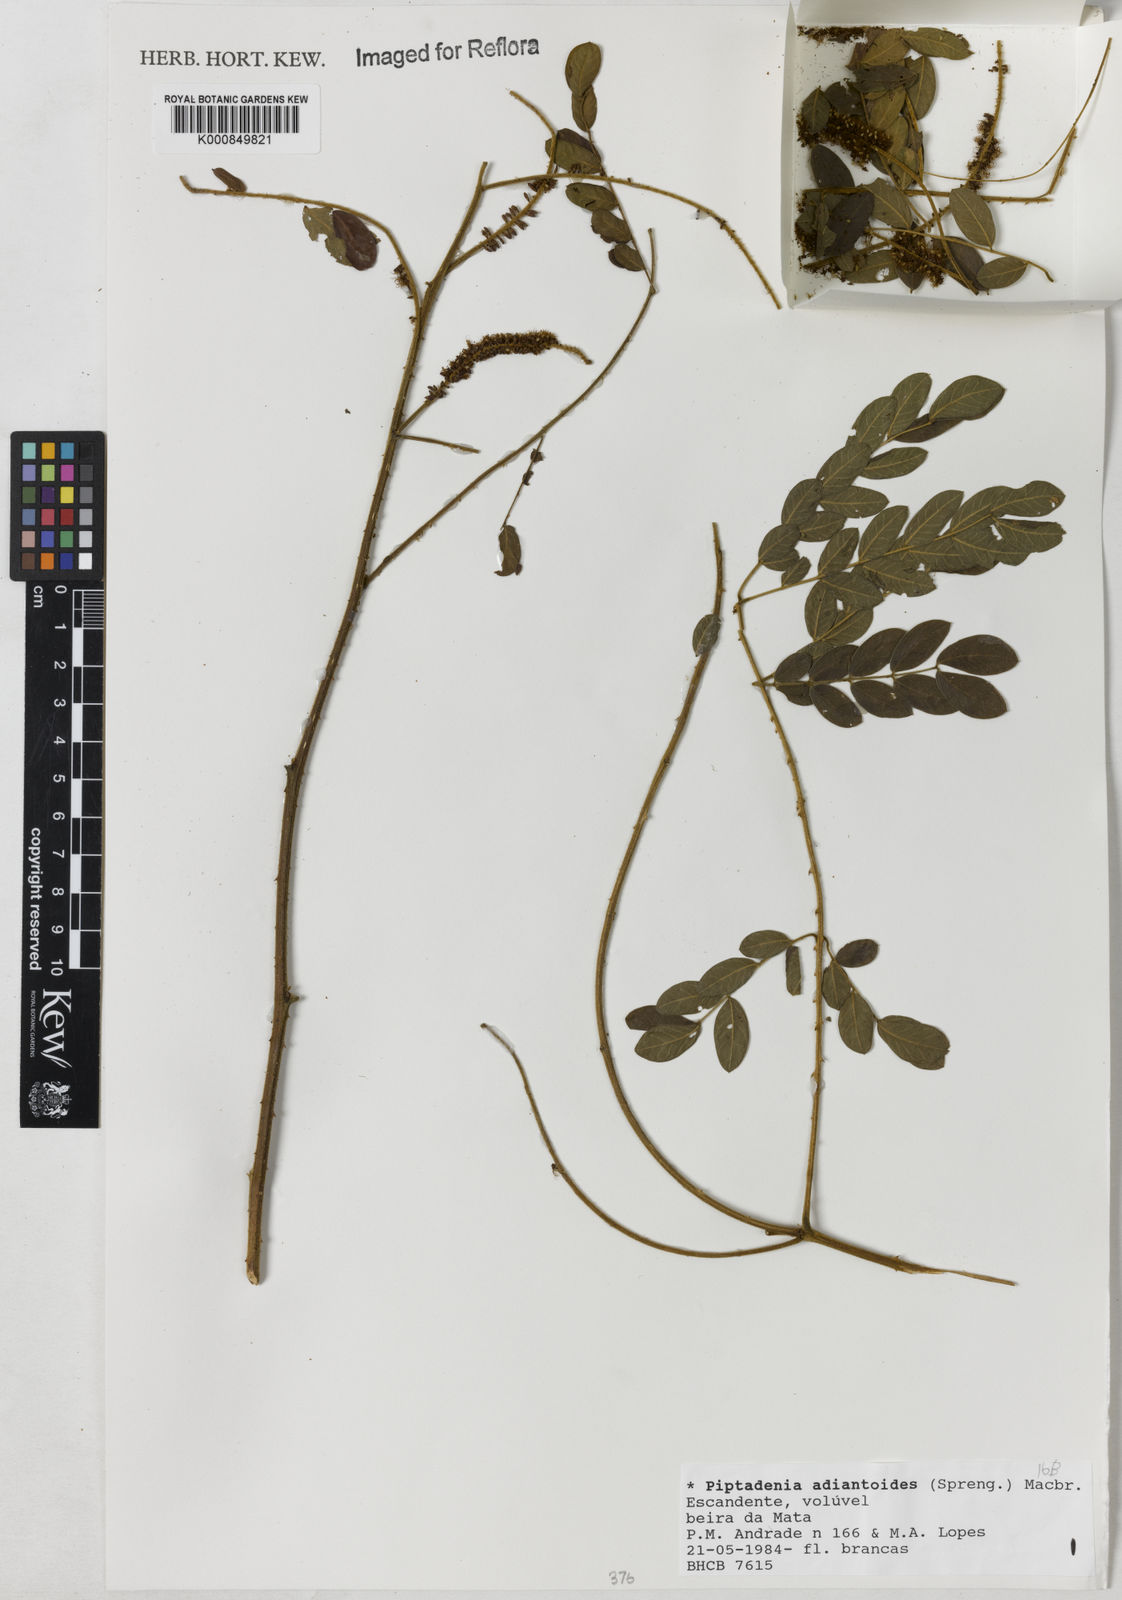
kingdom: Plantae
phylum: Tracheophyta
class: Magnoliopsida
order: Fabales
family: Fabaceae
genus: Piptadenia
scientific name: Piptadenia adiantoides
